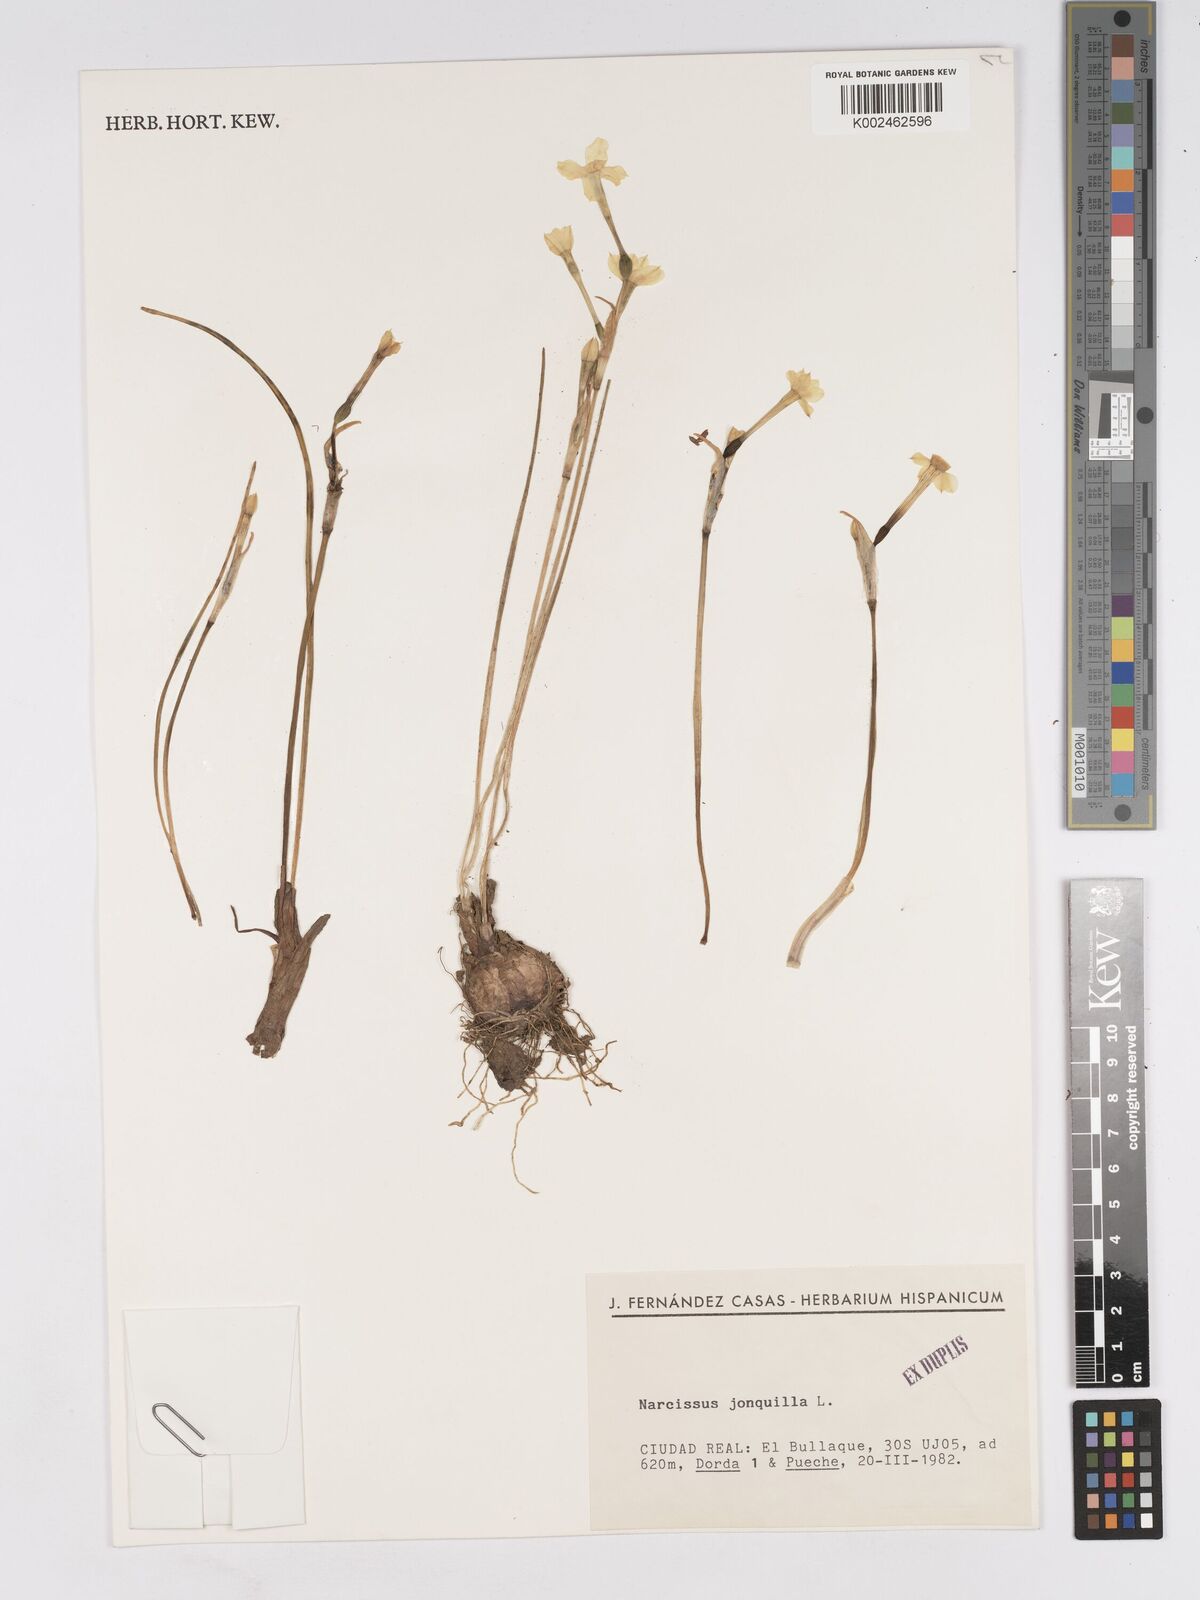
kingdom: Plantae
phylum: Tracheophyta
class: Liliopsida
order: Asparagales
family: Amaryllidaceae
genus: Narcissus
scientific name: Narcissus jonquilla
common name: Jonquil
